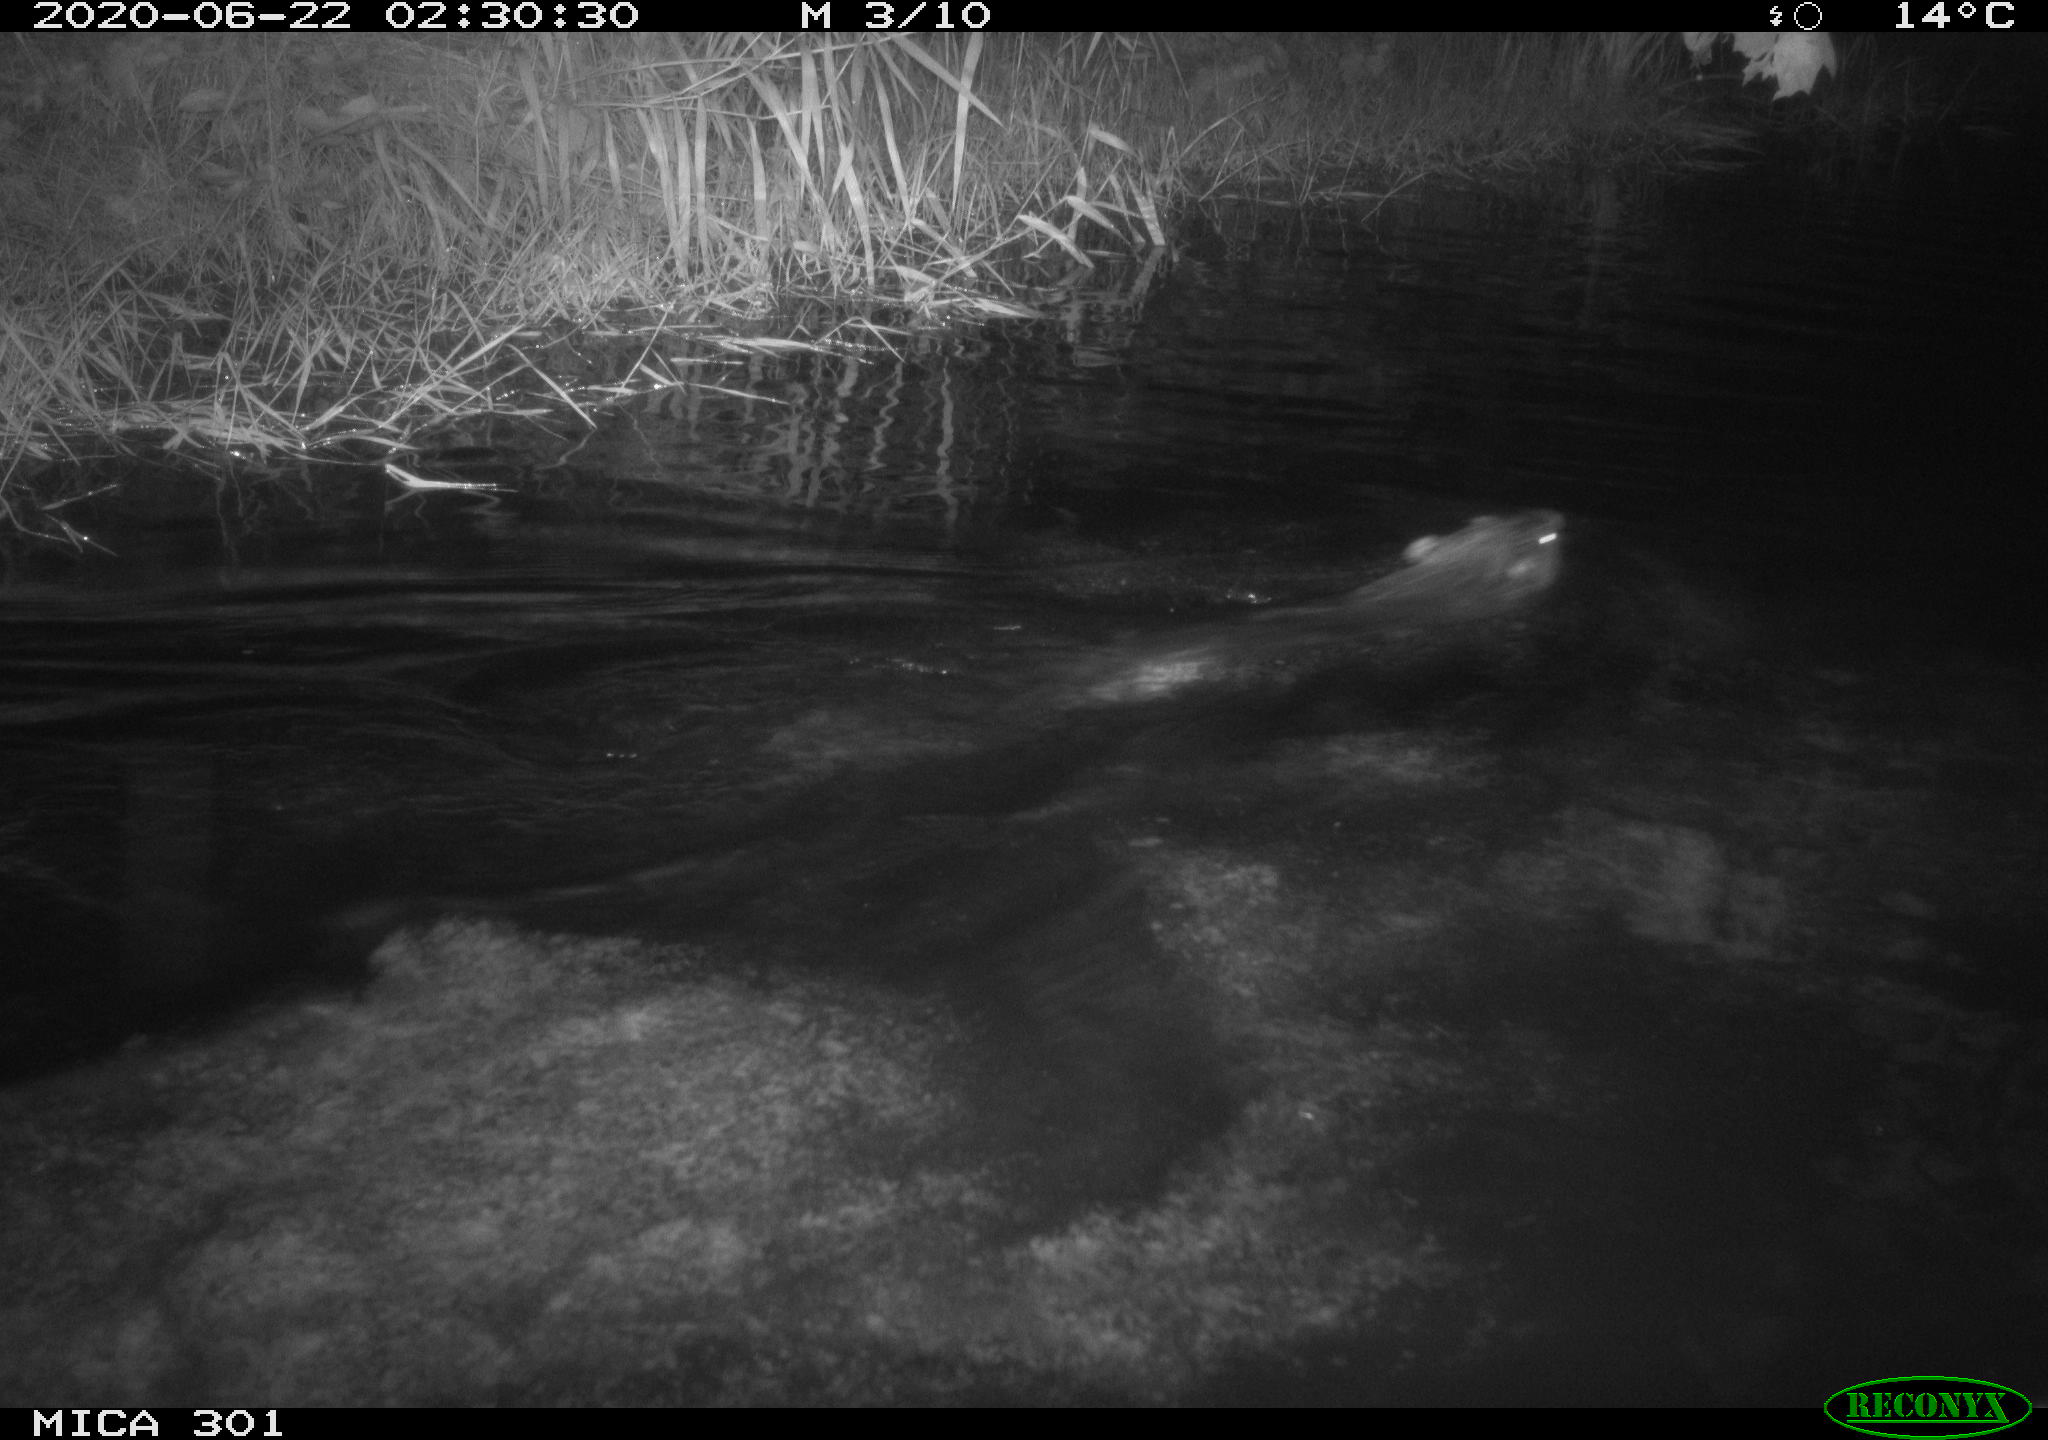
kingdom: Animalia
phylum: Chordata
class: Mammalia
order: Rodentia
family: Castoridae
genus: Castor
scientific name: Castor fiber
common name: Eurasian beaver
